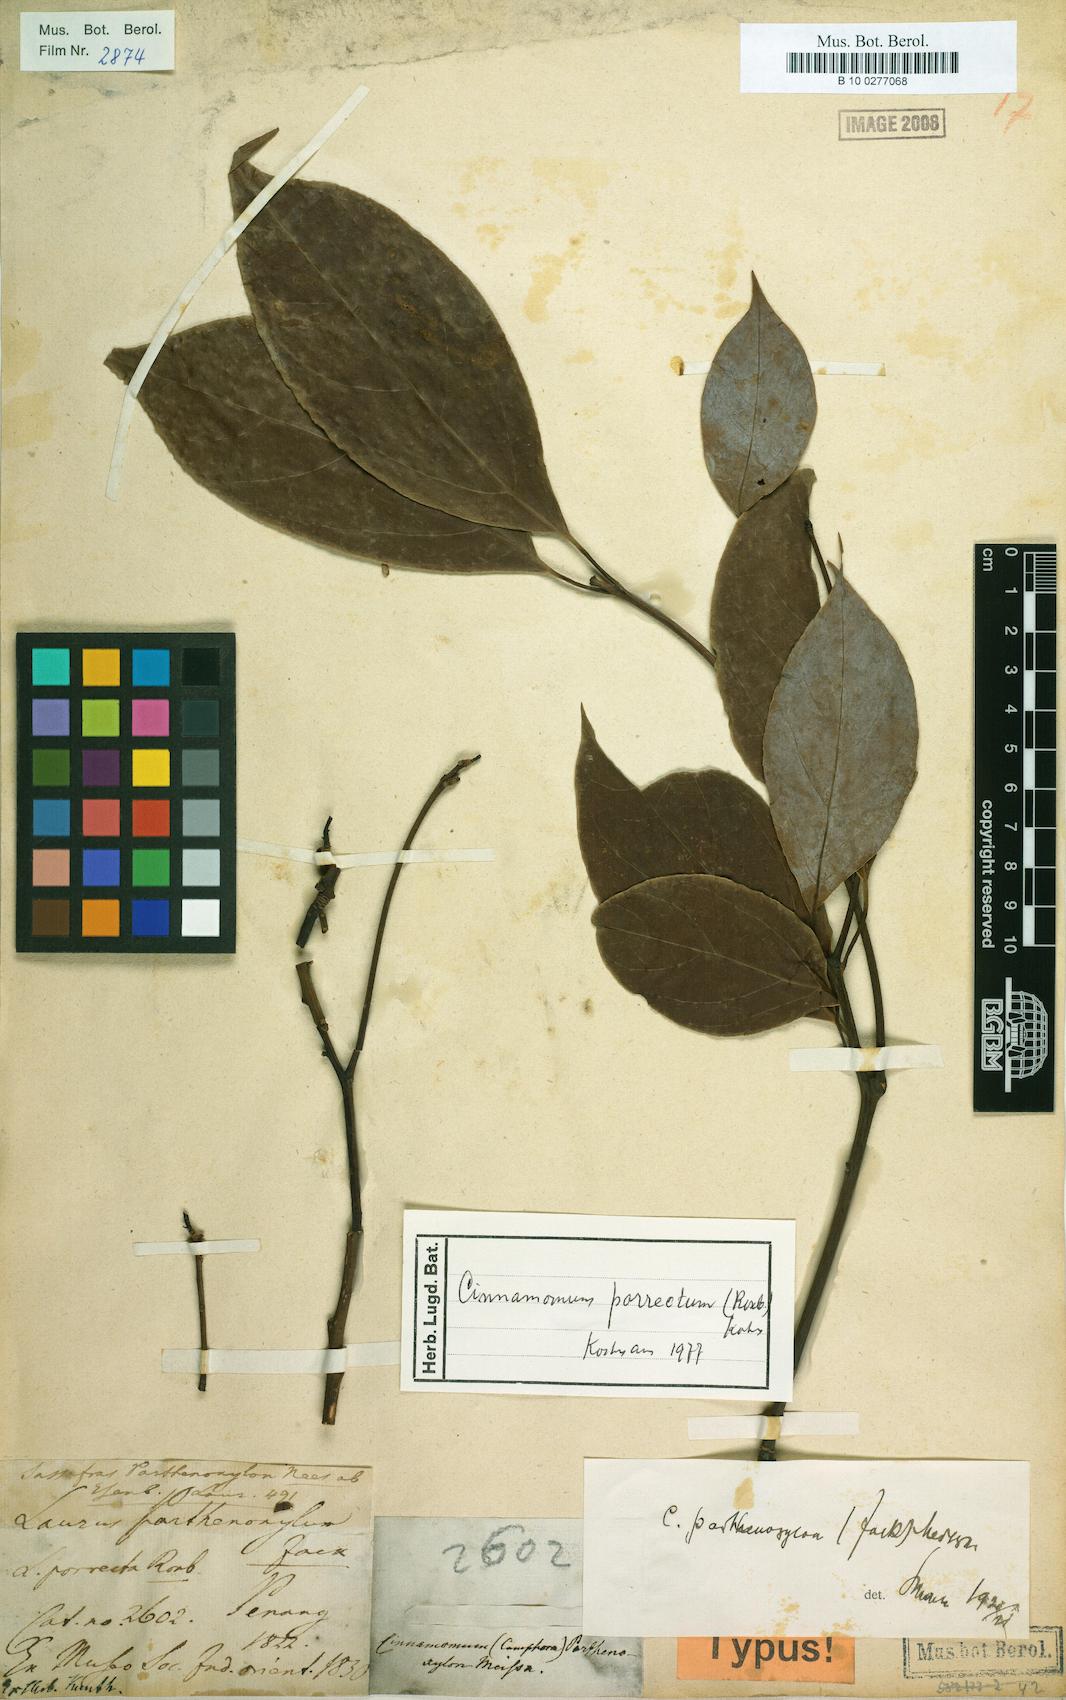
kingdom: Plantae
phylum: Tracheophyta
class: Magnoliopsida
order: Laurales
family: Lauraceae
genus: Cinnamomum
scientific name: Cinnamomum parthenoxylon
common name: Martaban camphor wood
